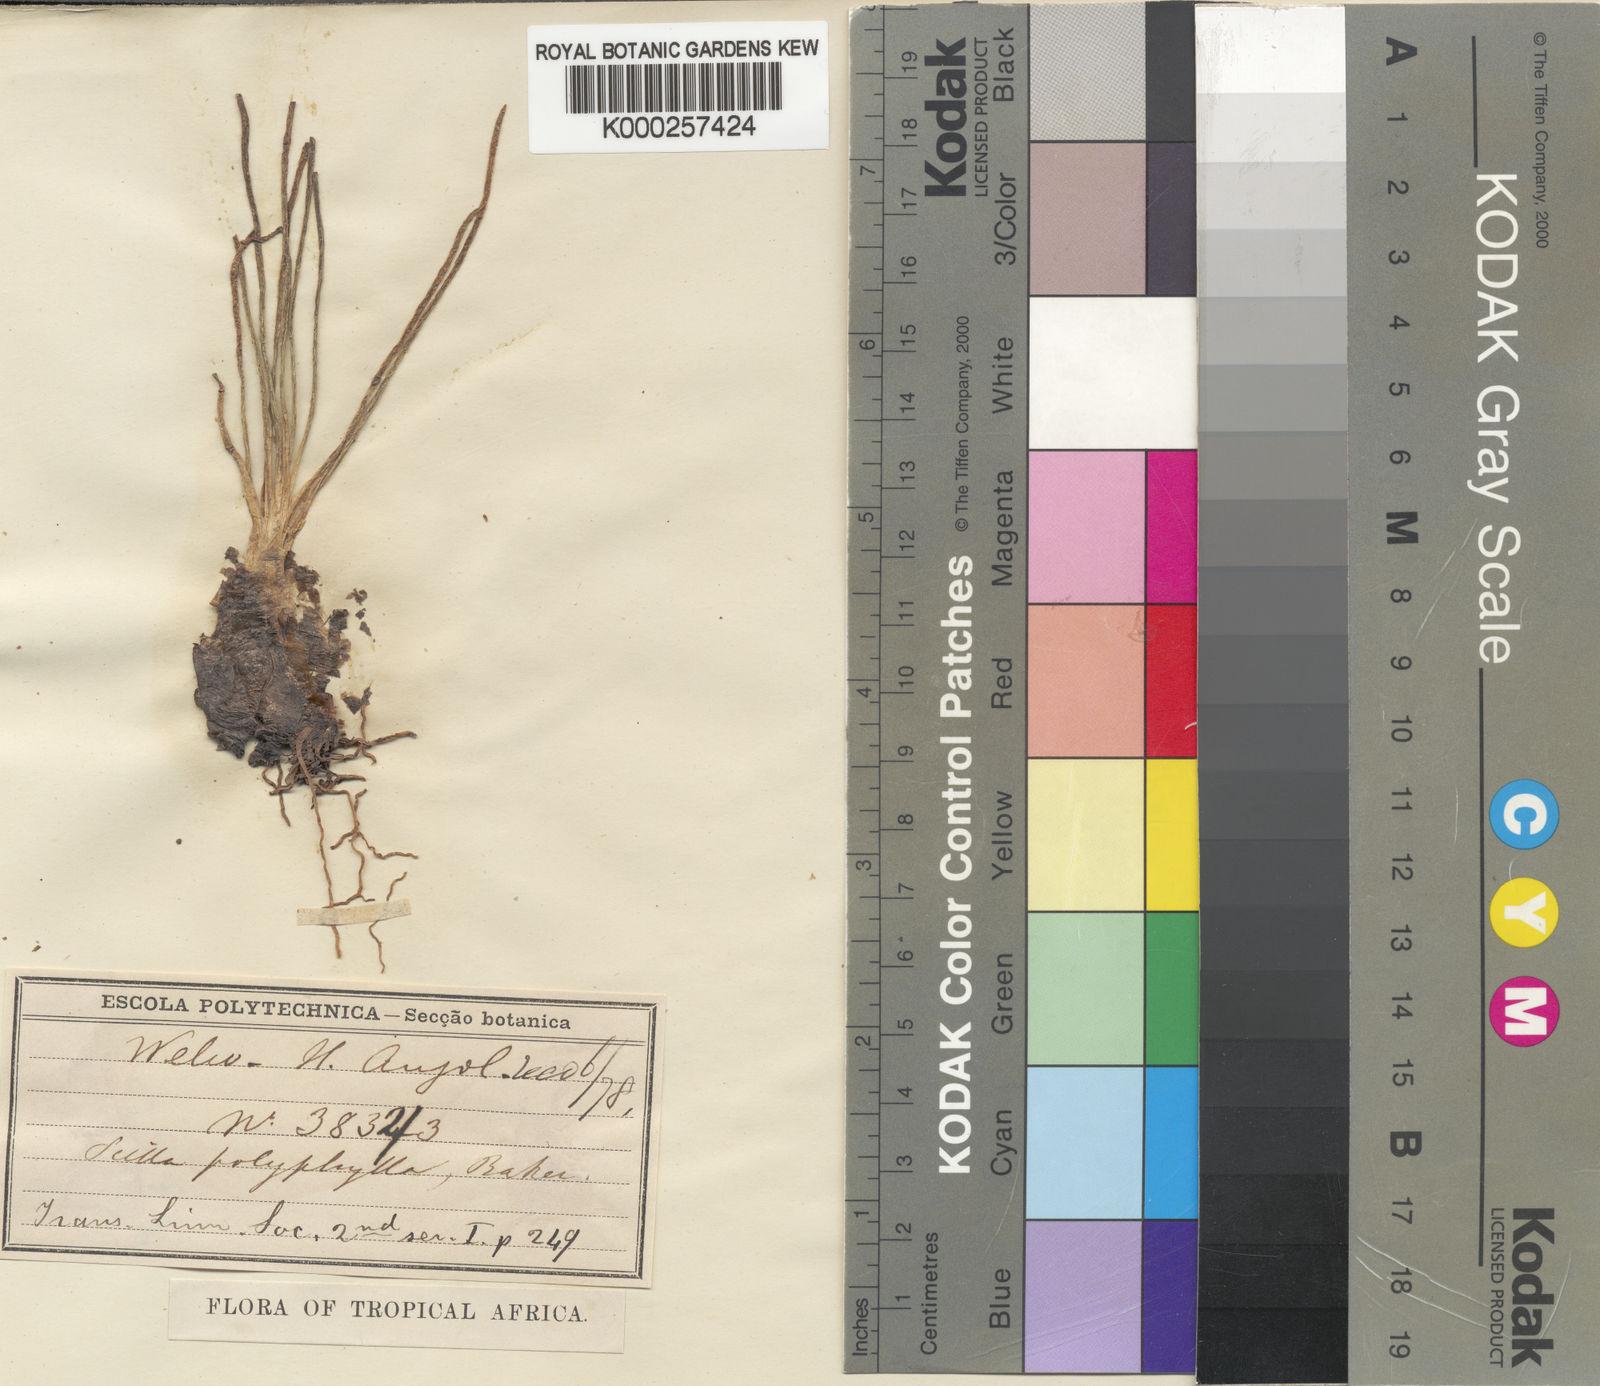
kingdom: Plantae
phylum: Tracheophyta
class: Liliopsida
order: Asparagales
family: Asparagaceae
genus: Scilla
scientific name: Scilla welwitschii
